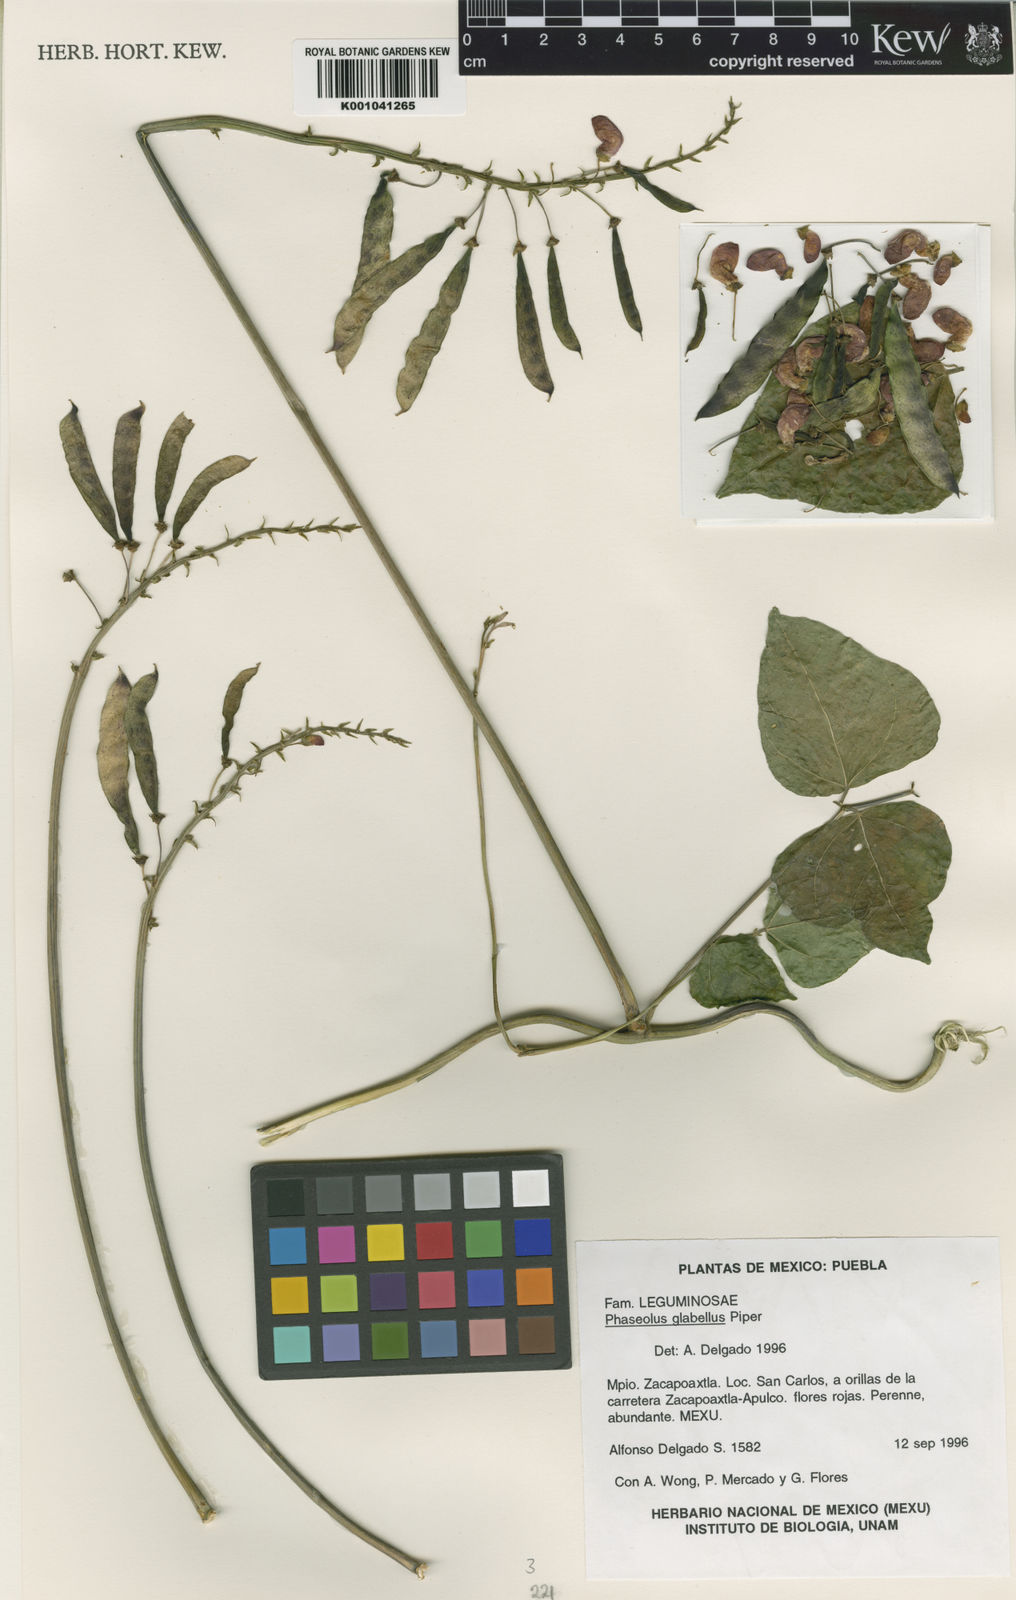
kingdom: Plantae
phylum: Tracheophyta
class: Magnoliopsida
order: Fabales
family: Fabaceae
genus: Phaseolus
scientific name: Phaseolus glabellus
